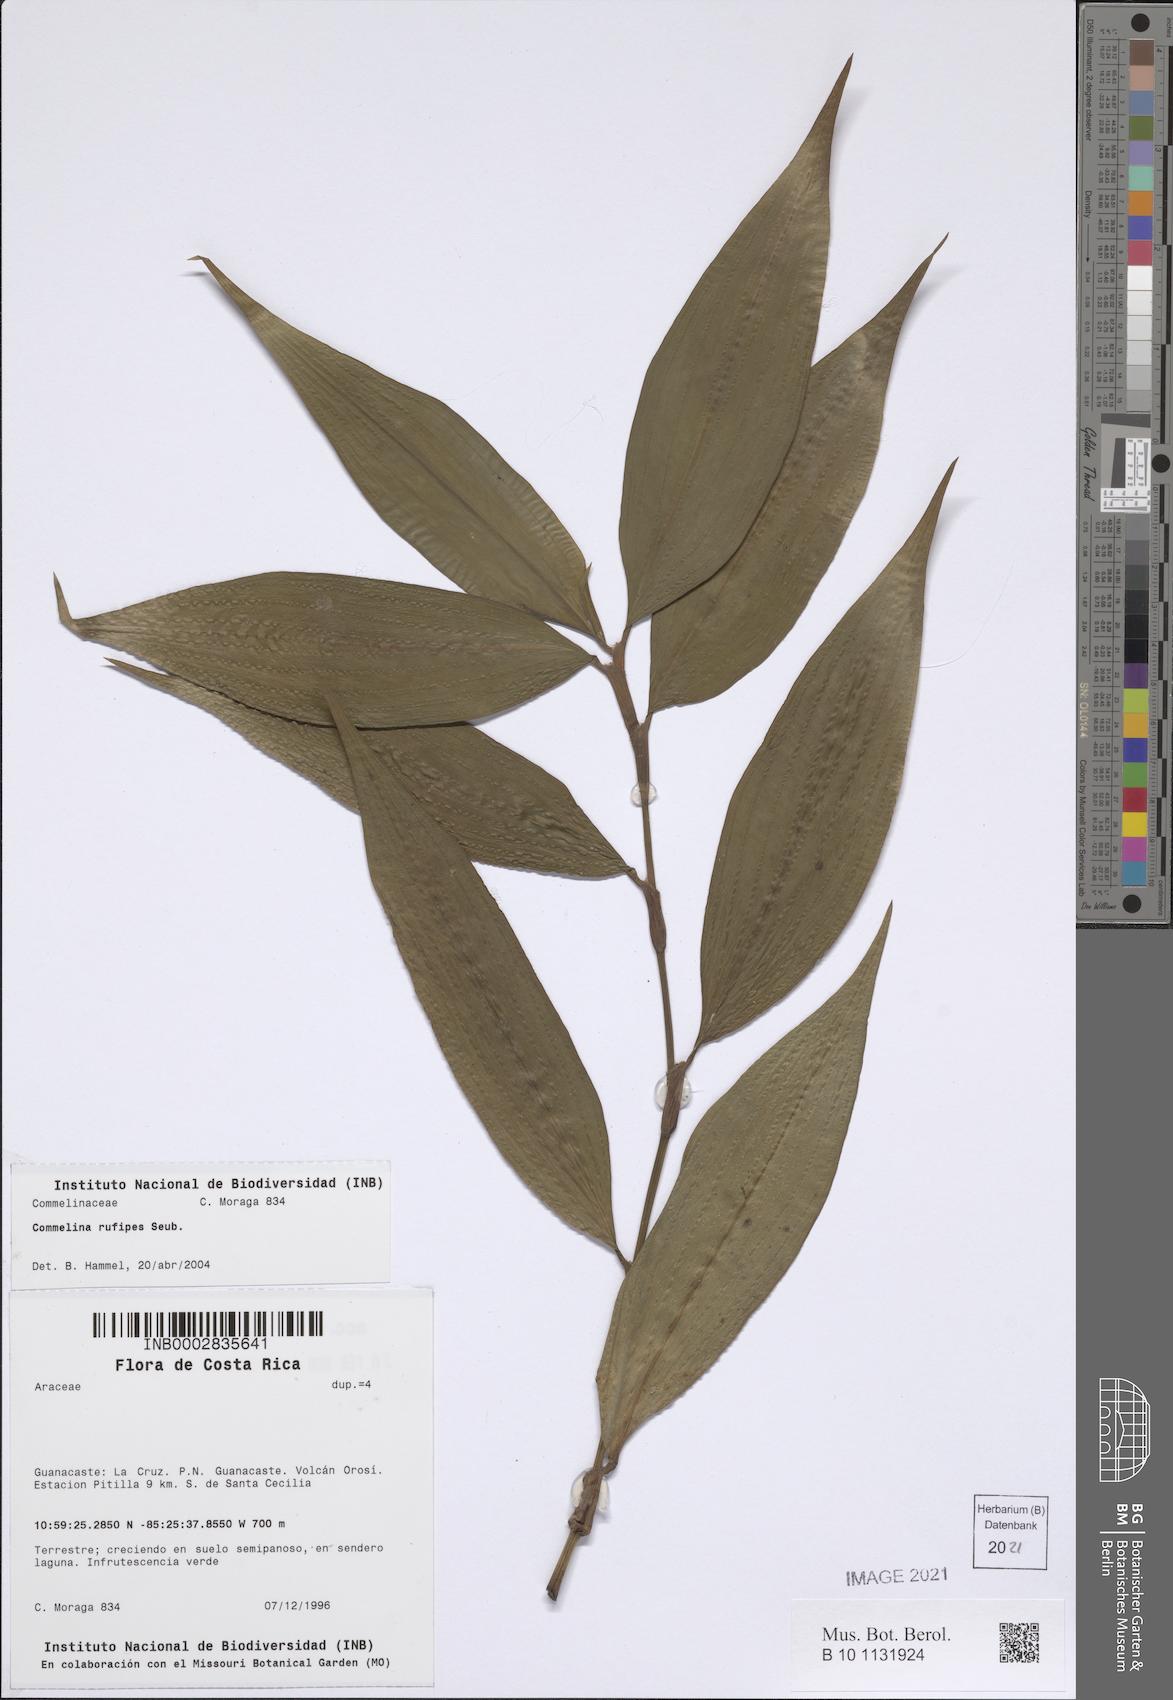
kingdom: Plantae
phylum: Tracheophyta
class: Liliopsida
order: Commelinales
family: Commelinaceae
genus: Commelina
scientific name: Commelina rufipes
